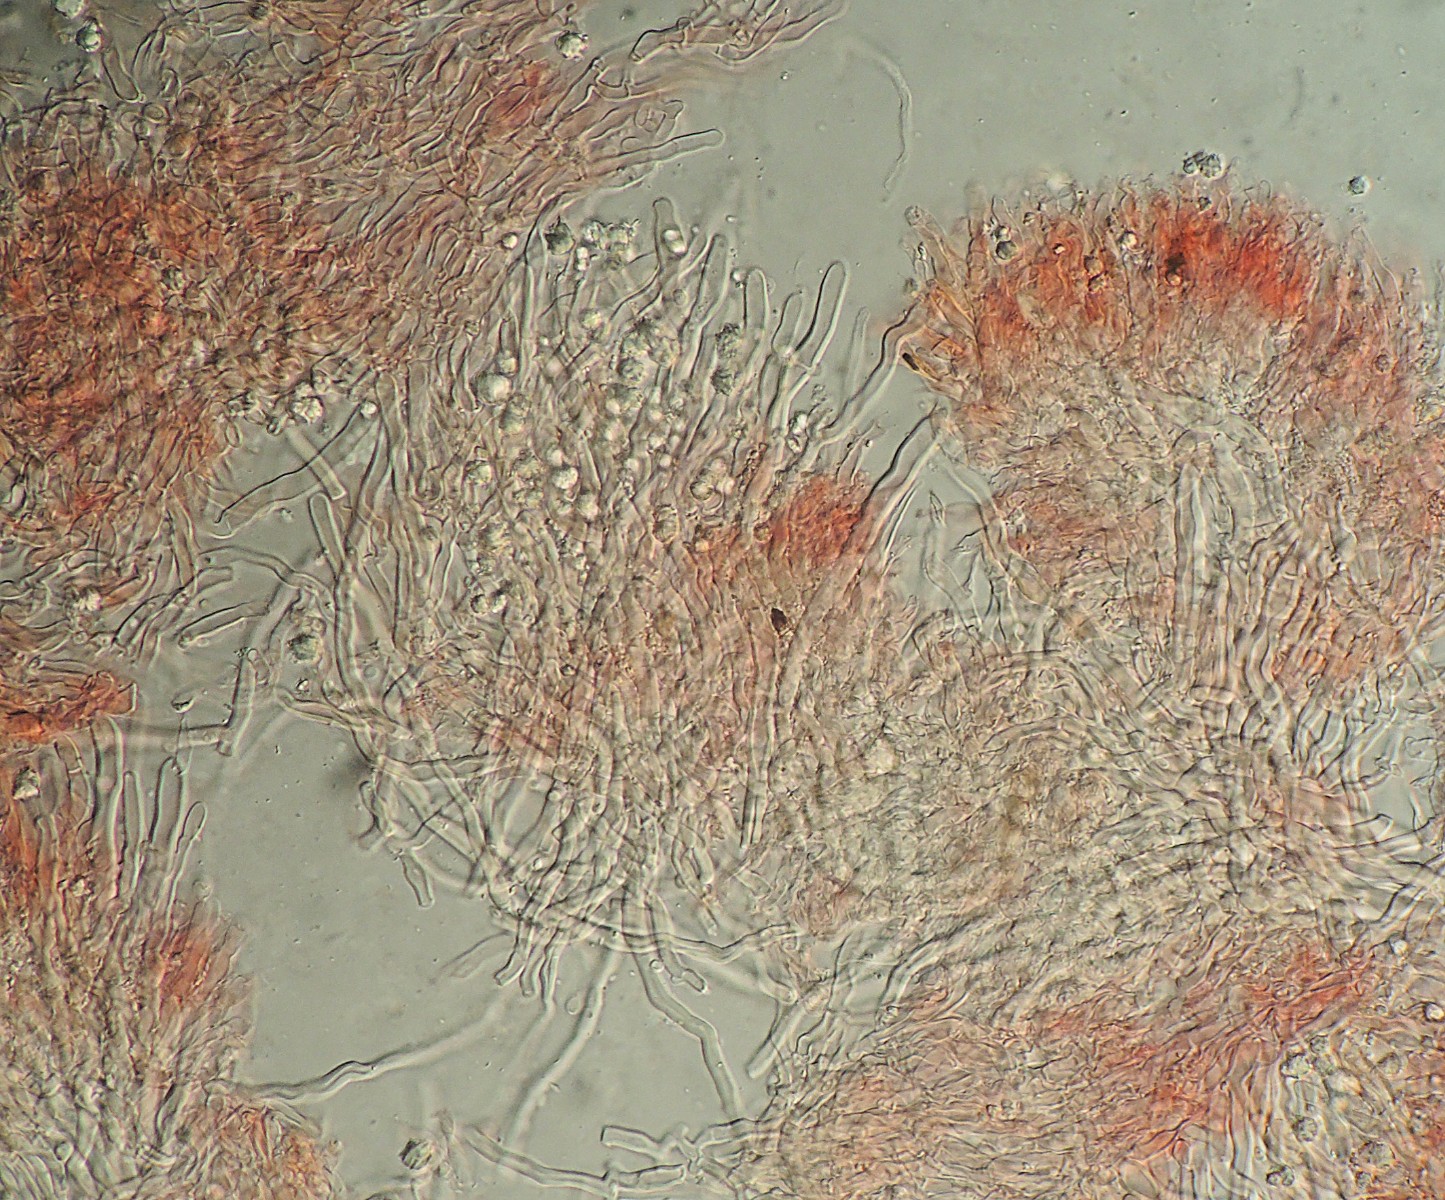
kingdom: Fungi
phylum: Basidiomycota
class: Agaricomycetes
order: Hymenochaetales
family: Schizoporaceae
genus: Xylodon
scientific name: Xylodon nesporii
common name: fintandet tandsvamp
